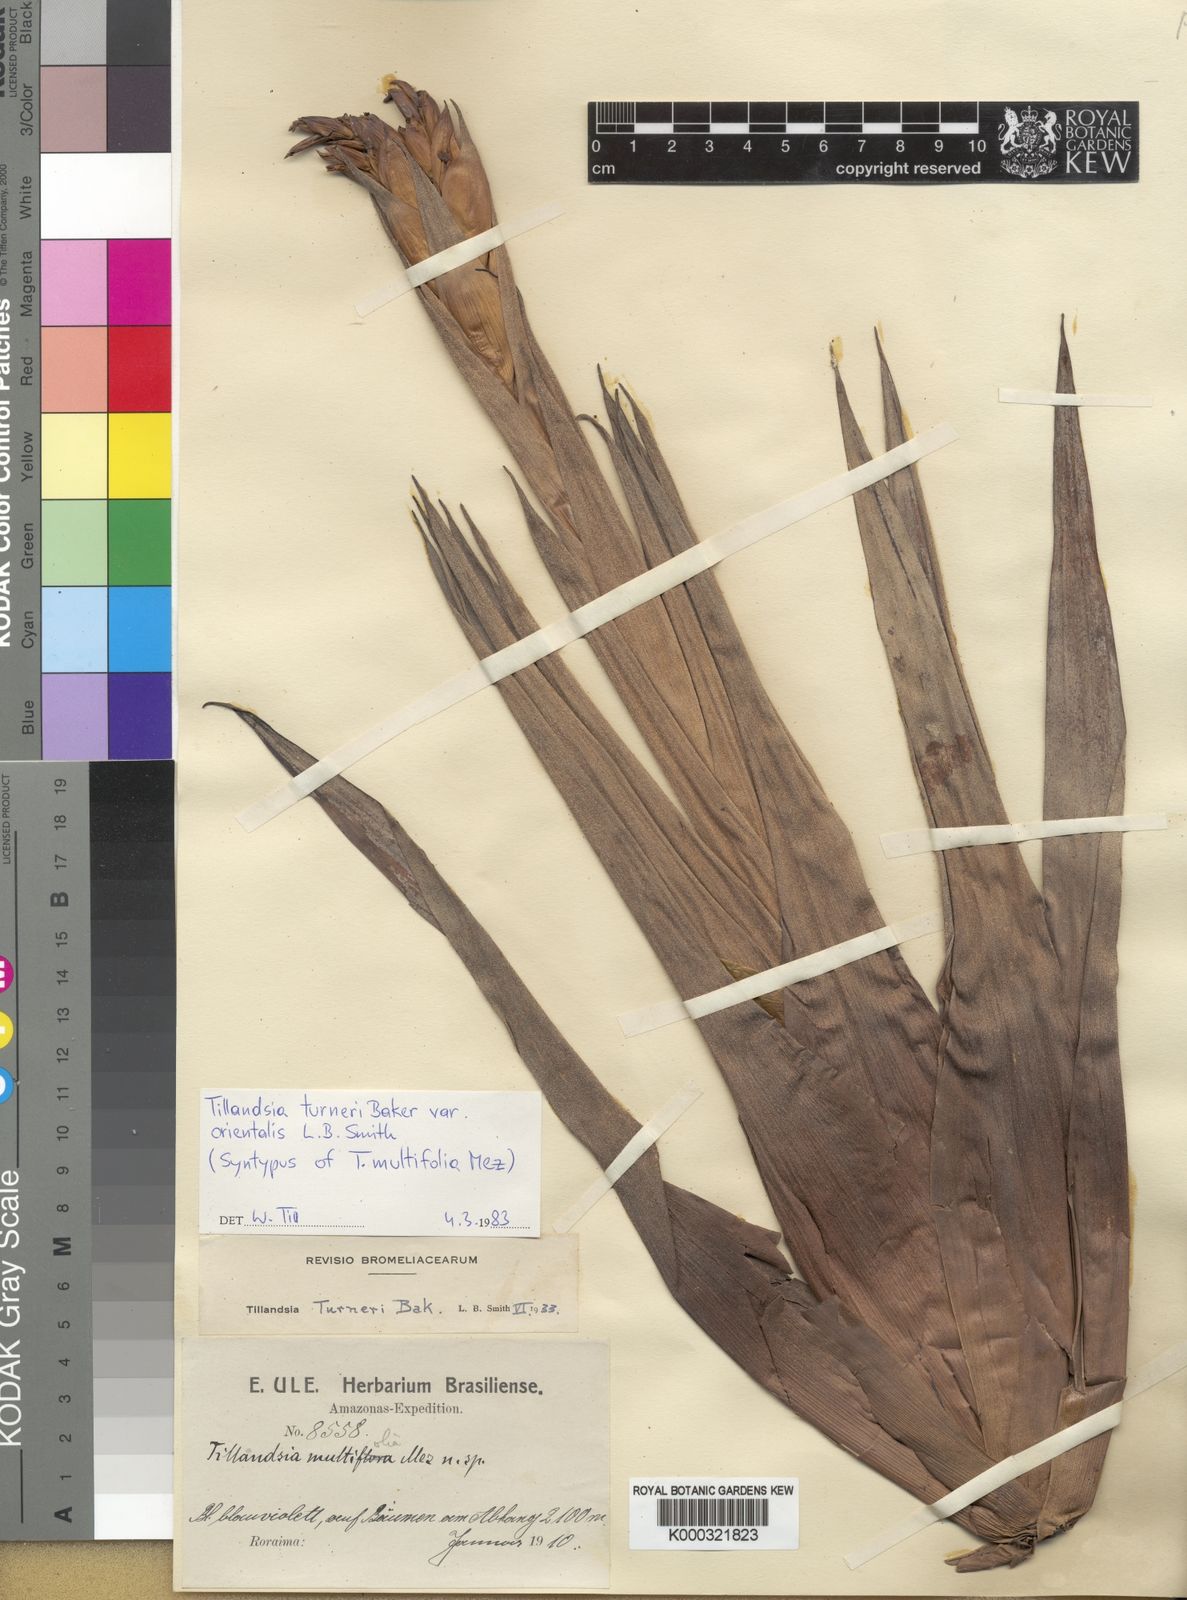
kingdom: Plantae
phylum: Tracheophyta
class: Liliopsida
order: Poales
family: Bromeliaceae
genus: Tillandsia
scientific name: Tillandsia turneri
